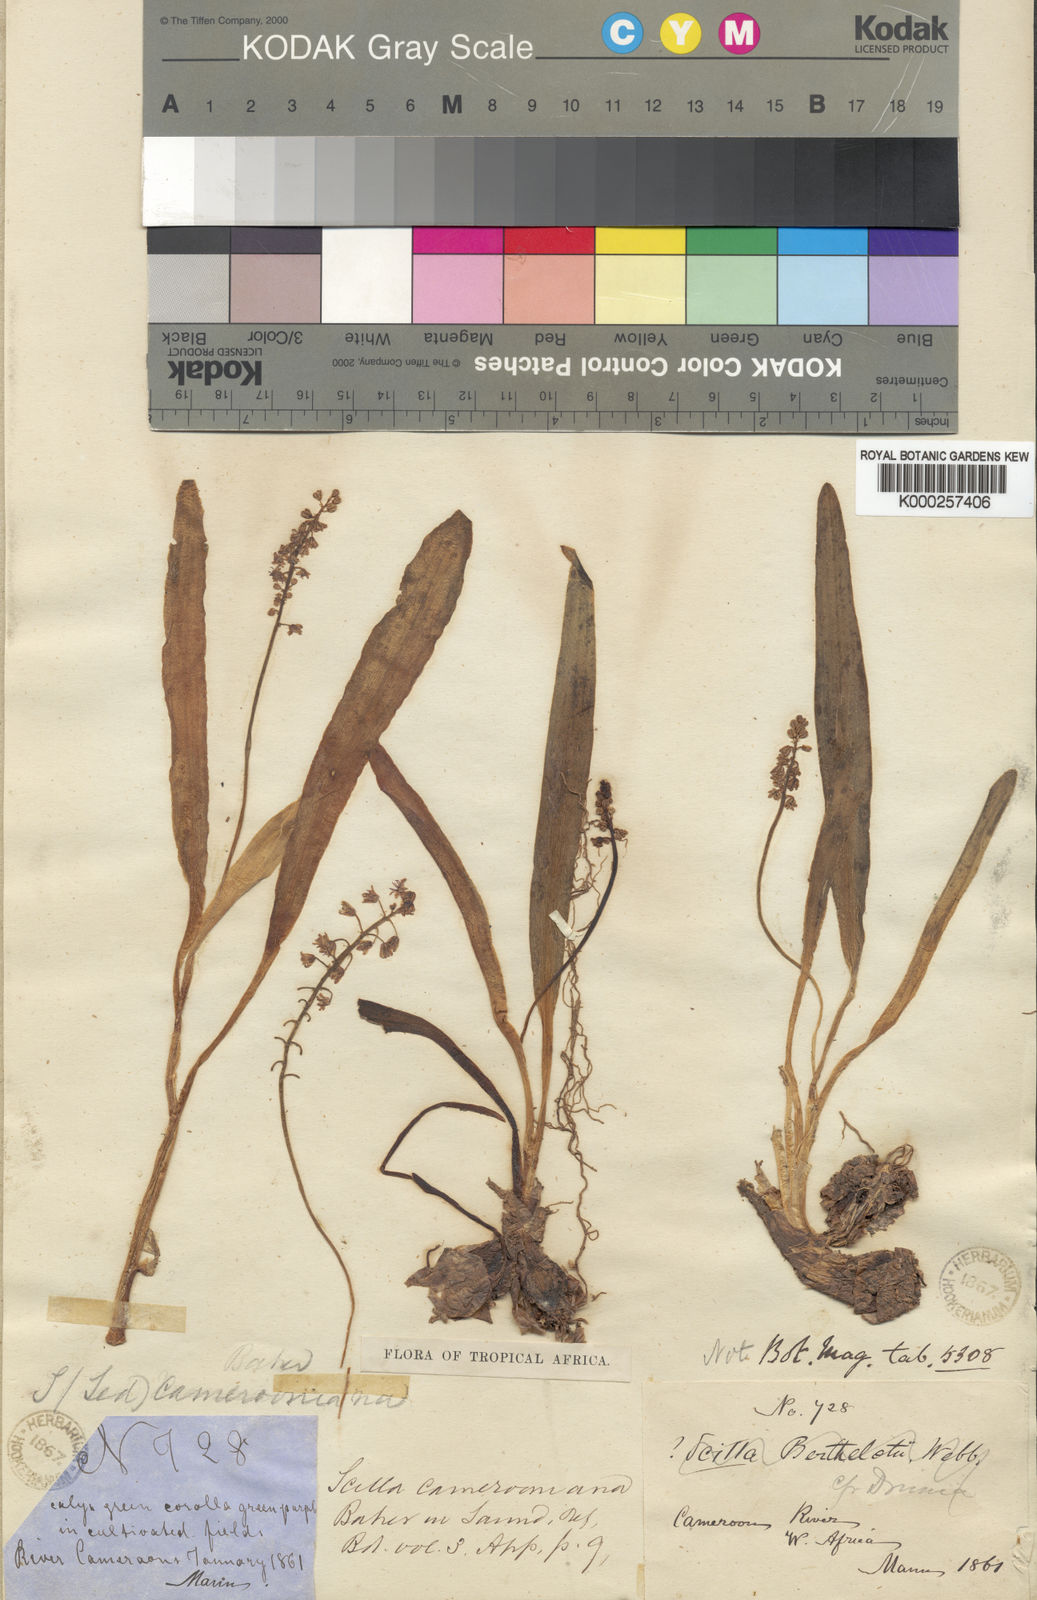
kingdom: Plantae
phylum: Tracheophyta
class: Liliopsida
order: Asparagales
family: Asparagaceae
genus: Ledebouria
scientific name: Ledebouria camerooniana
